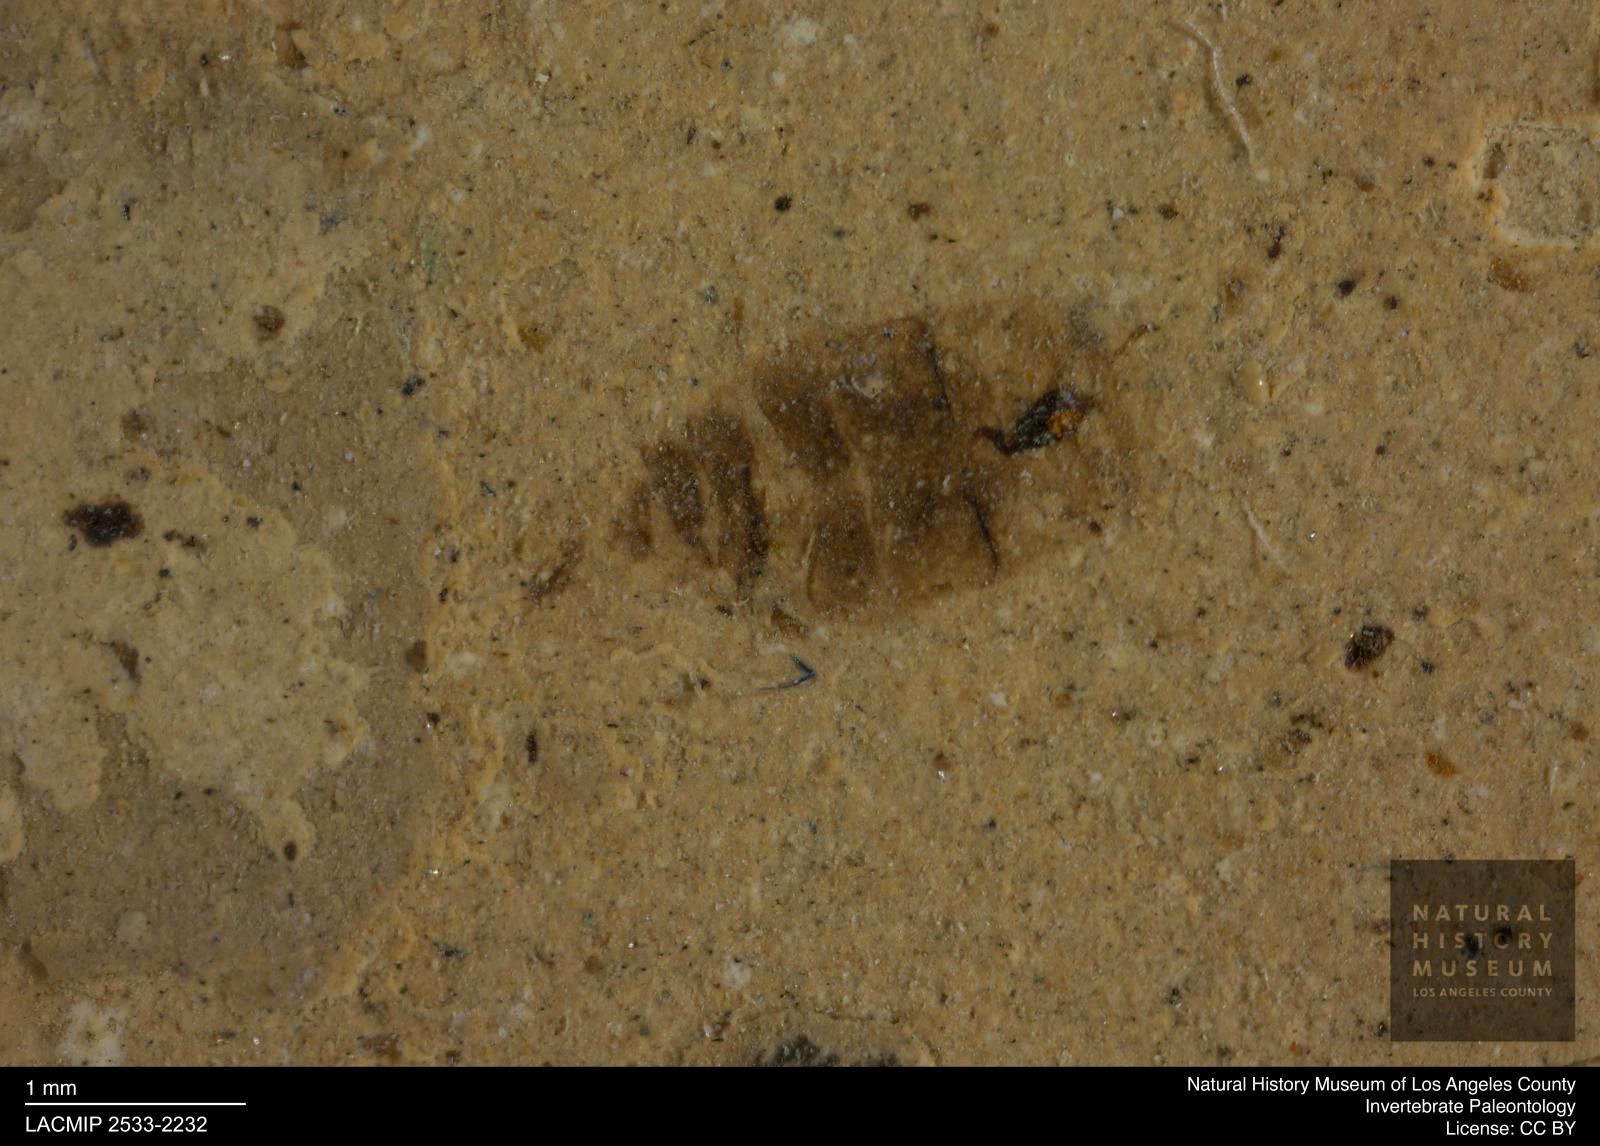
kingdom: Animalia
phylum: Arthropoda
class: Insecta
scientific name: Insecta
